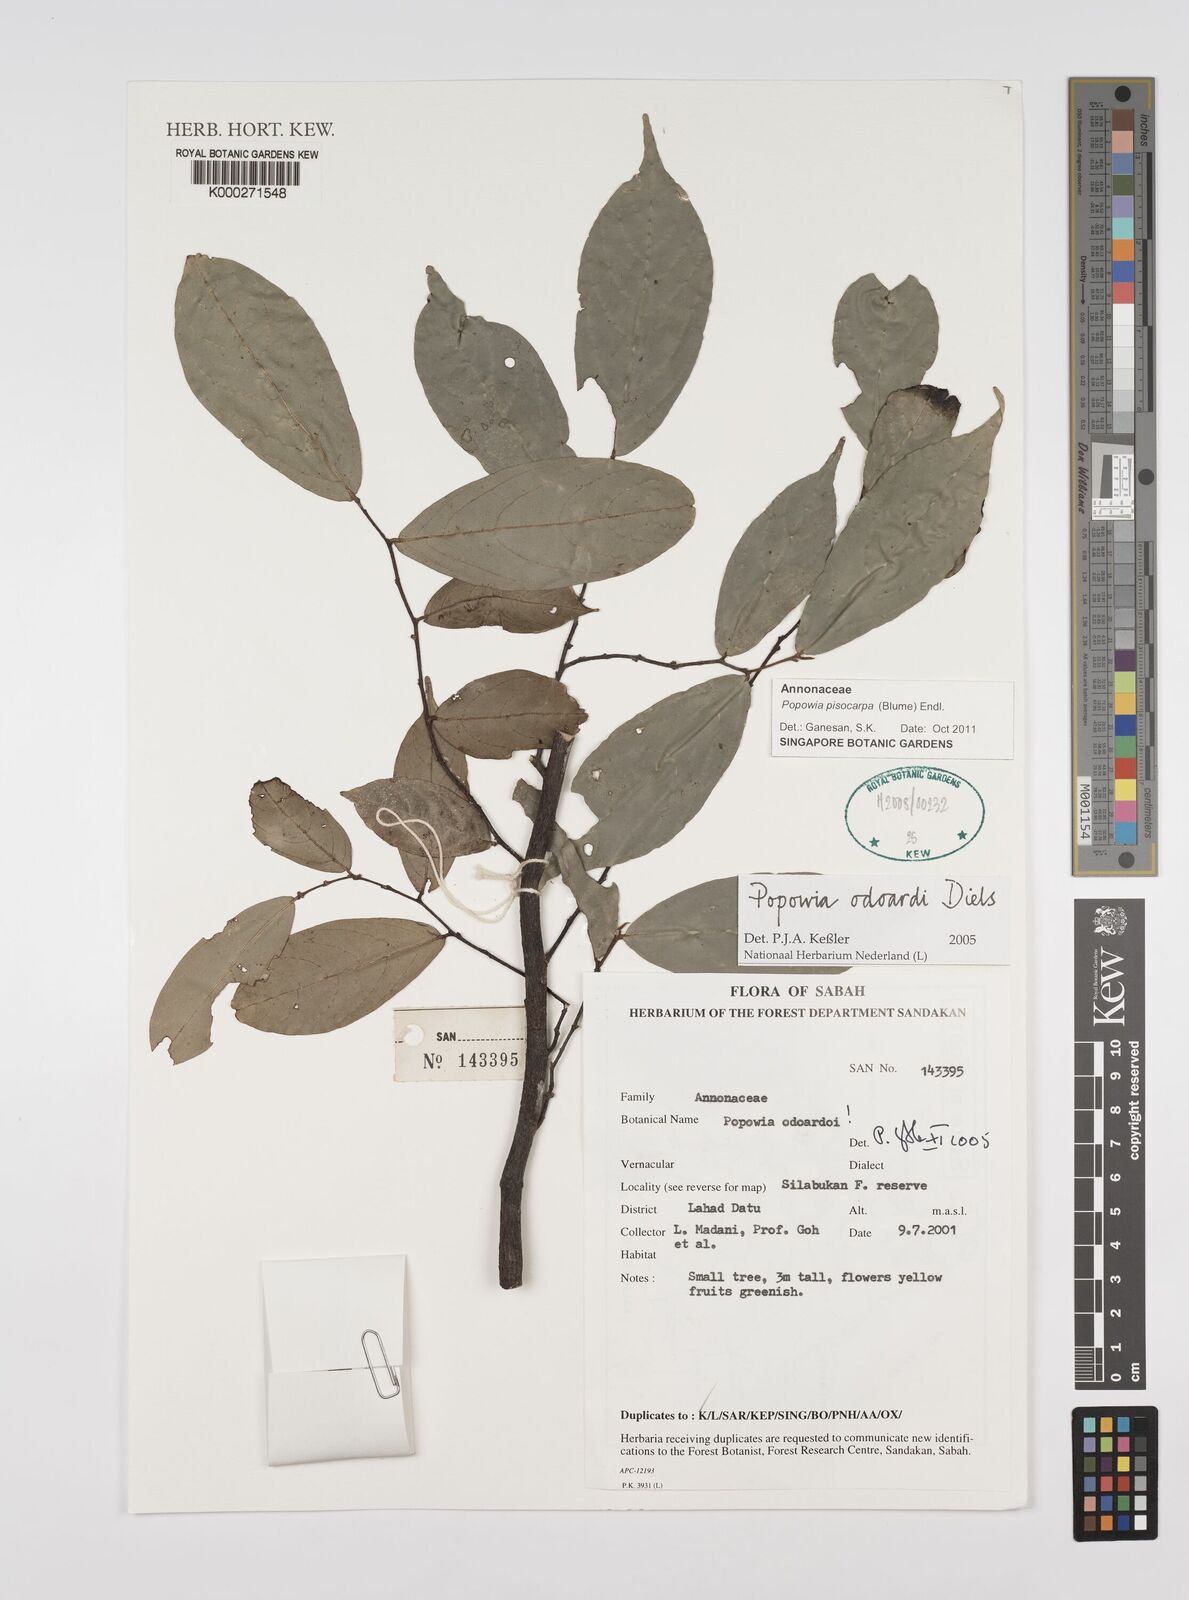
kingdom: Plantae
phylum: Tracheophyta
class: Magnoliopsida
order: Magnoliales
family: Annonaceae
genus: Popowia
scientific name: Popowia odoardi
